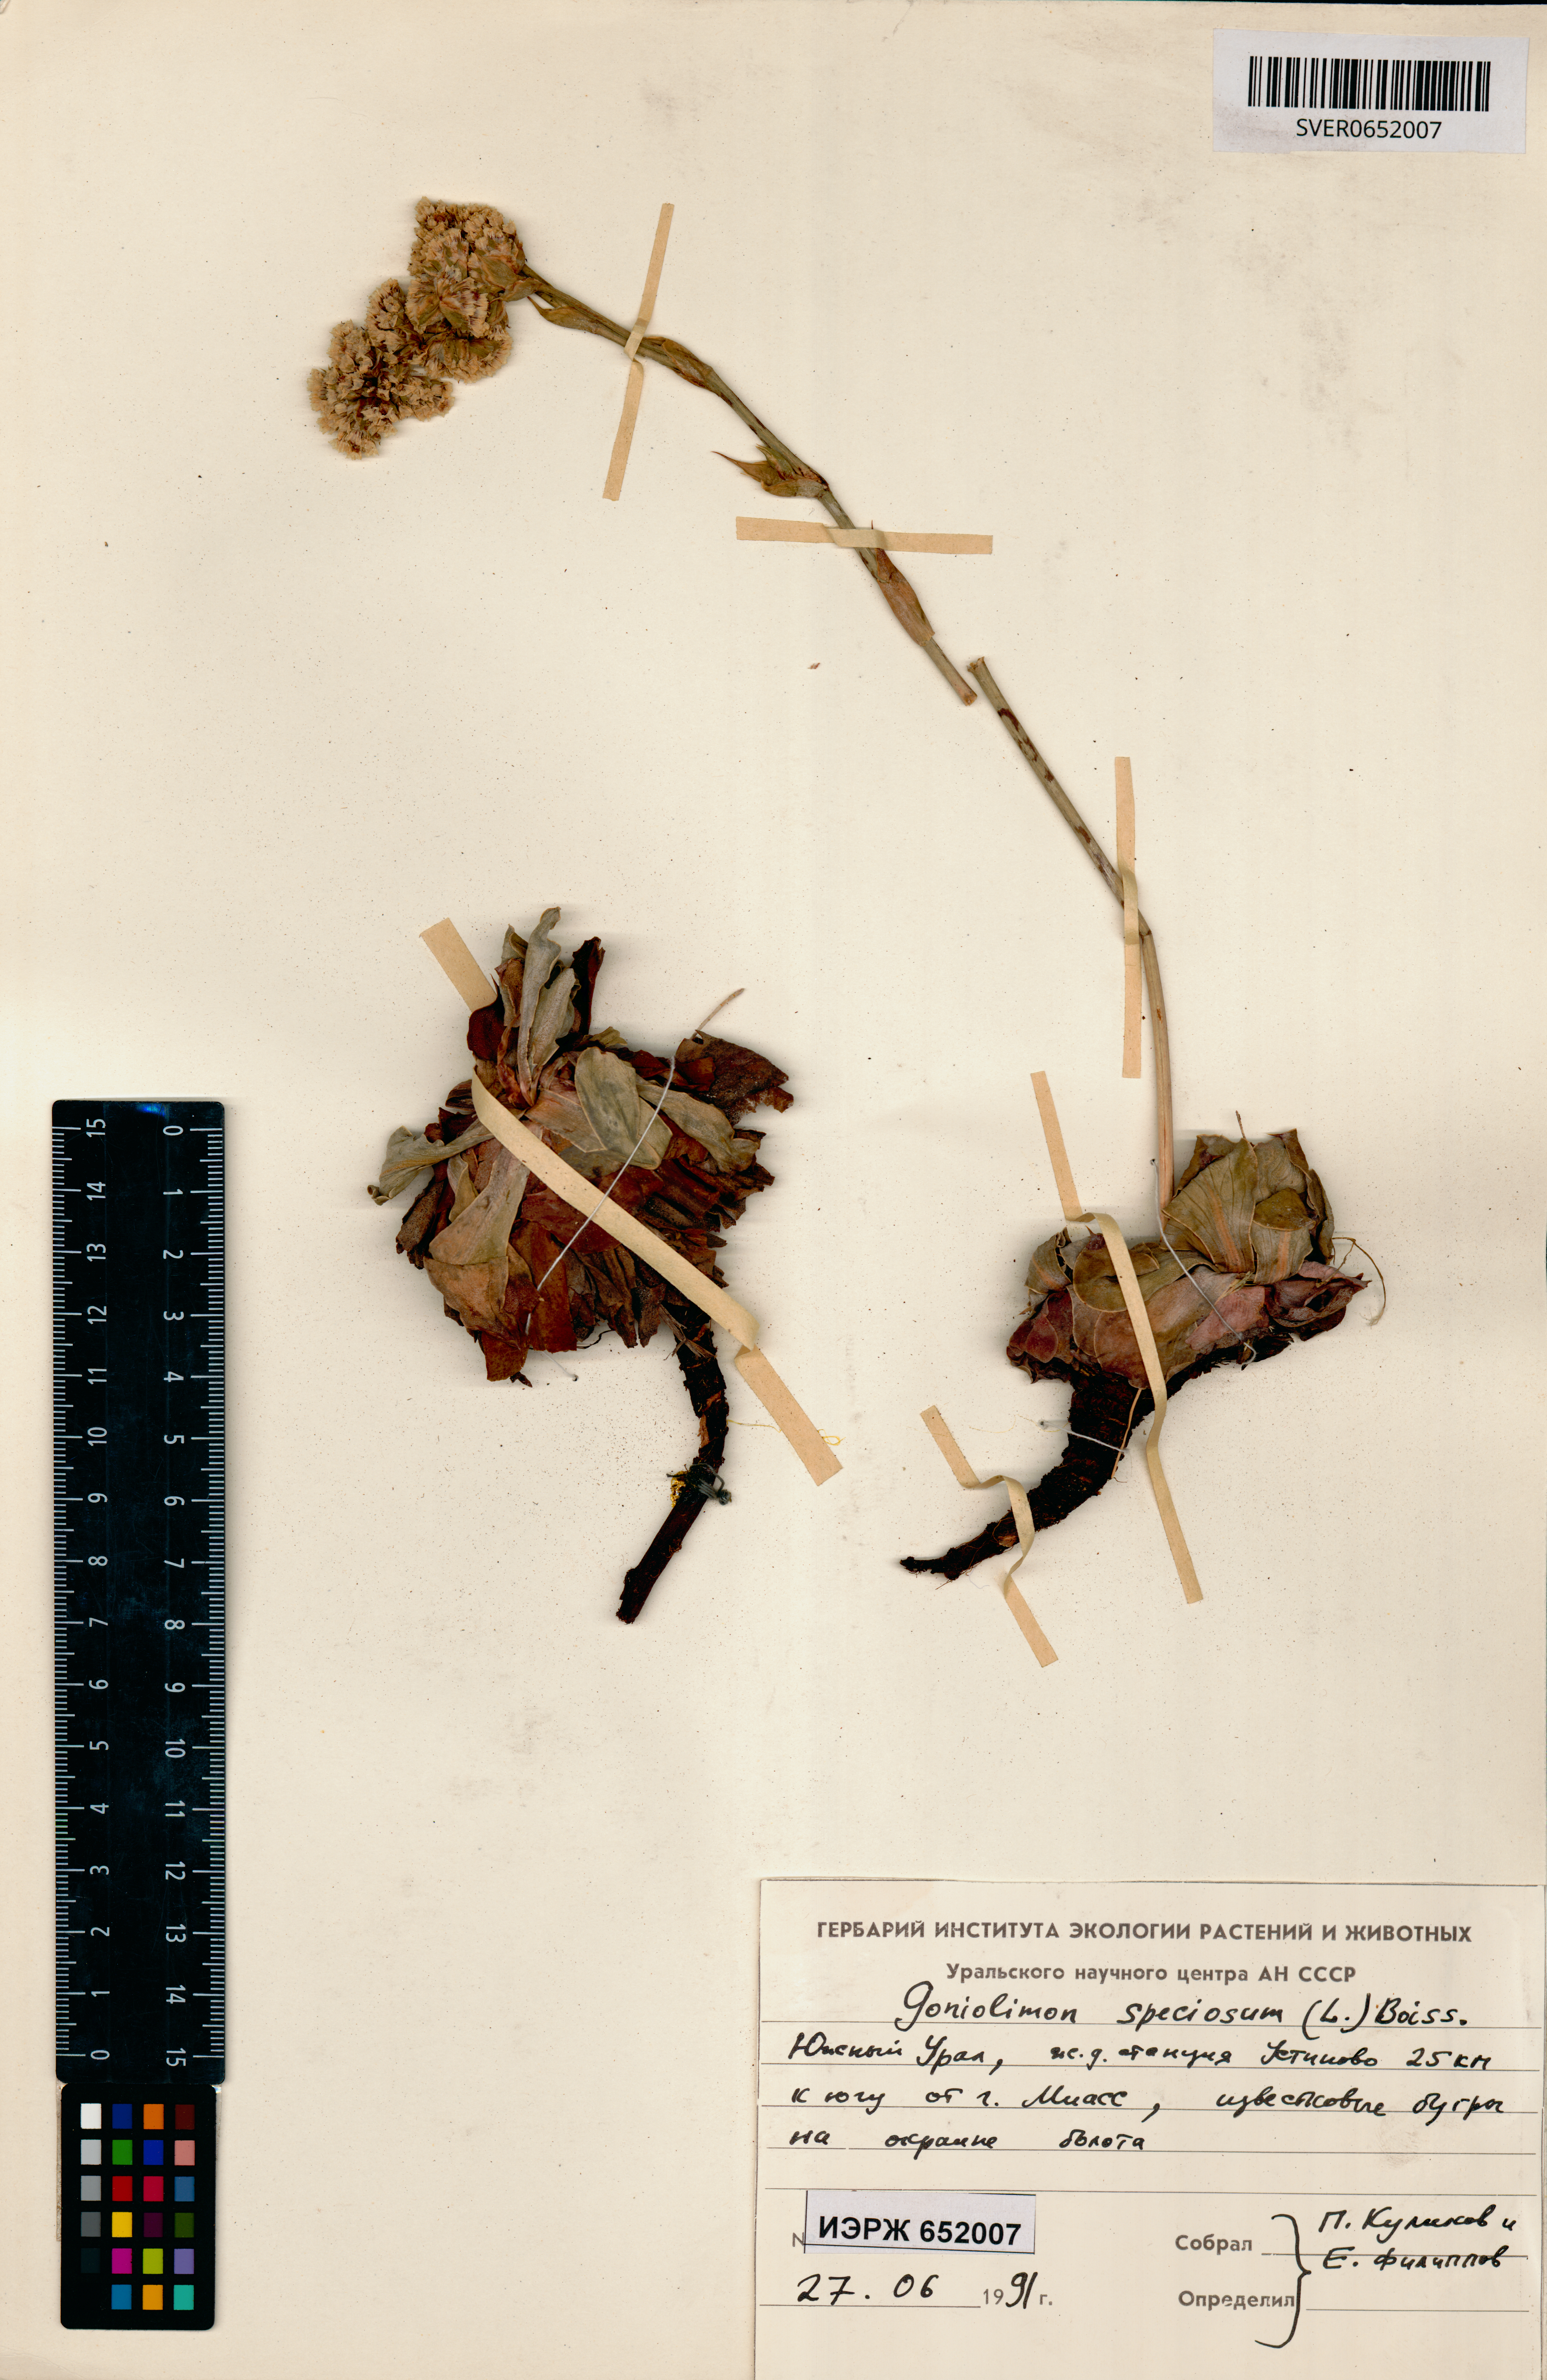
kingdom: Plantae
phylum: Tracheophyta
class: Magnoliopsida
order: Caryophyllales
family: Plumbaginaceae
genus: Goniolimon
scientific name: Goniolimon speciosum
